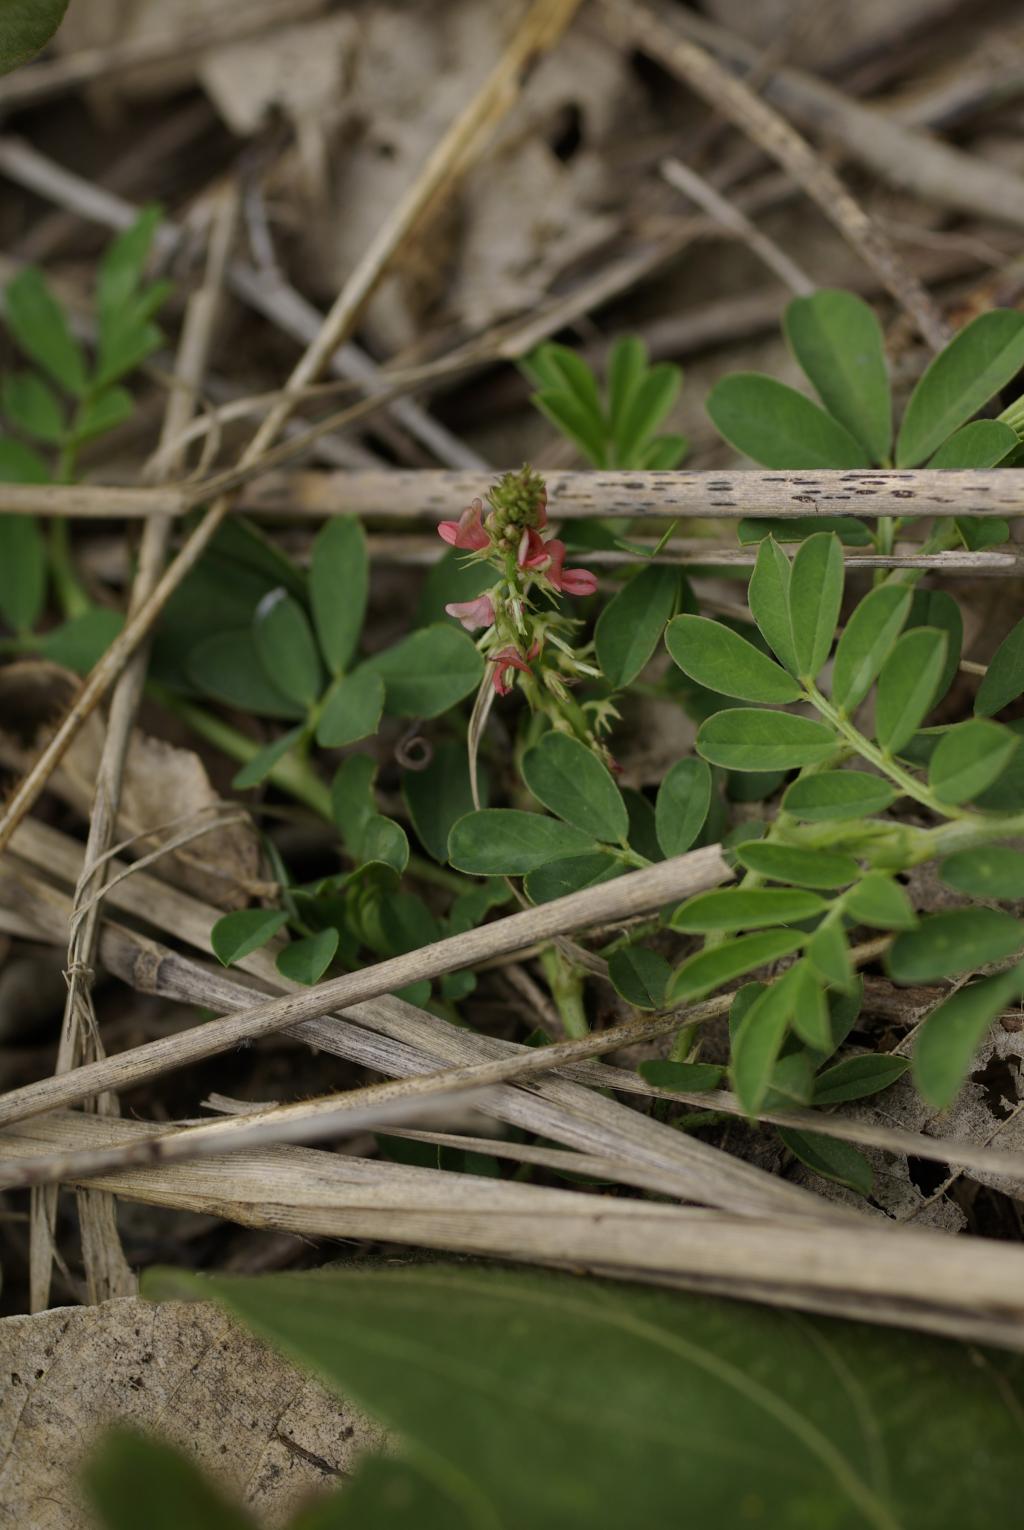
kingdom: Plantae
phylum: Tracheophyta
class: Magnoliopsida
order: Fabales
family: Fabaceae
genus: Indigofera
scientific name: Indigofera spicata
